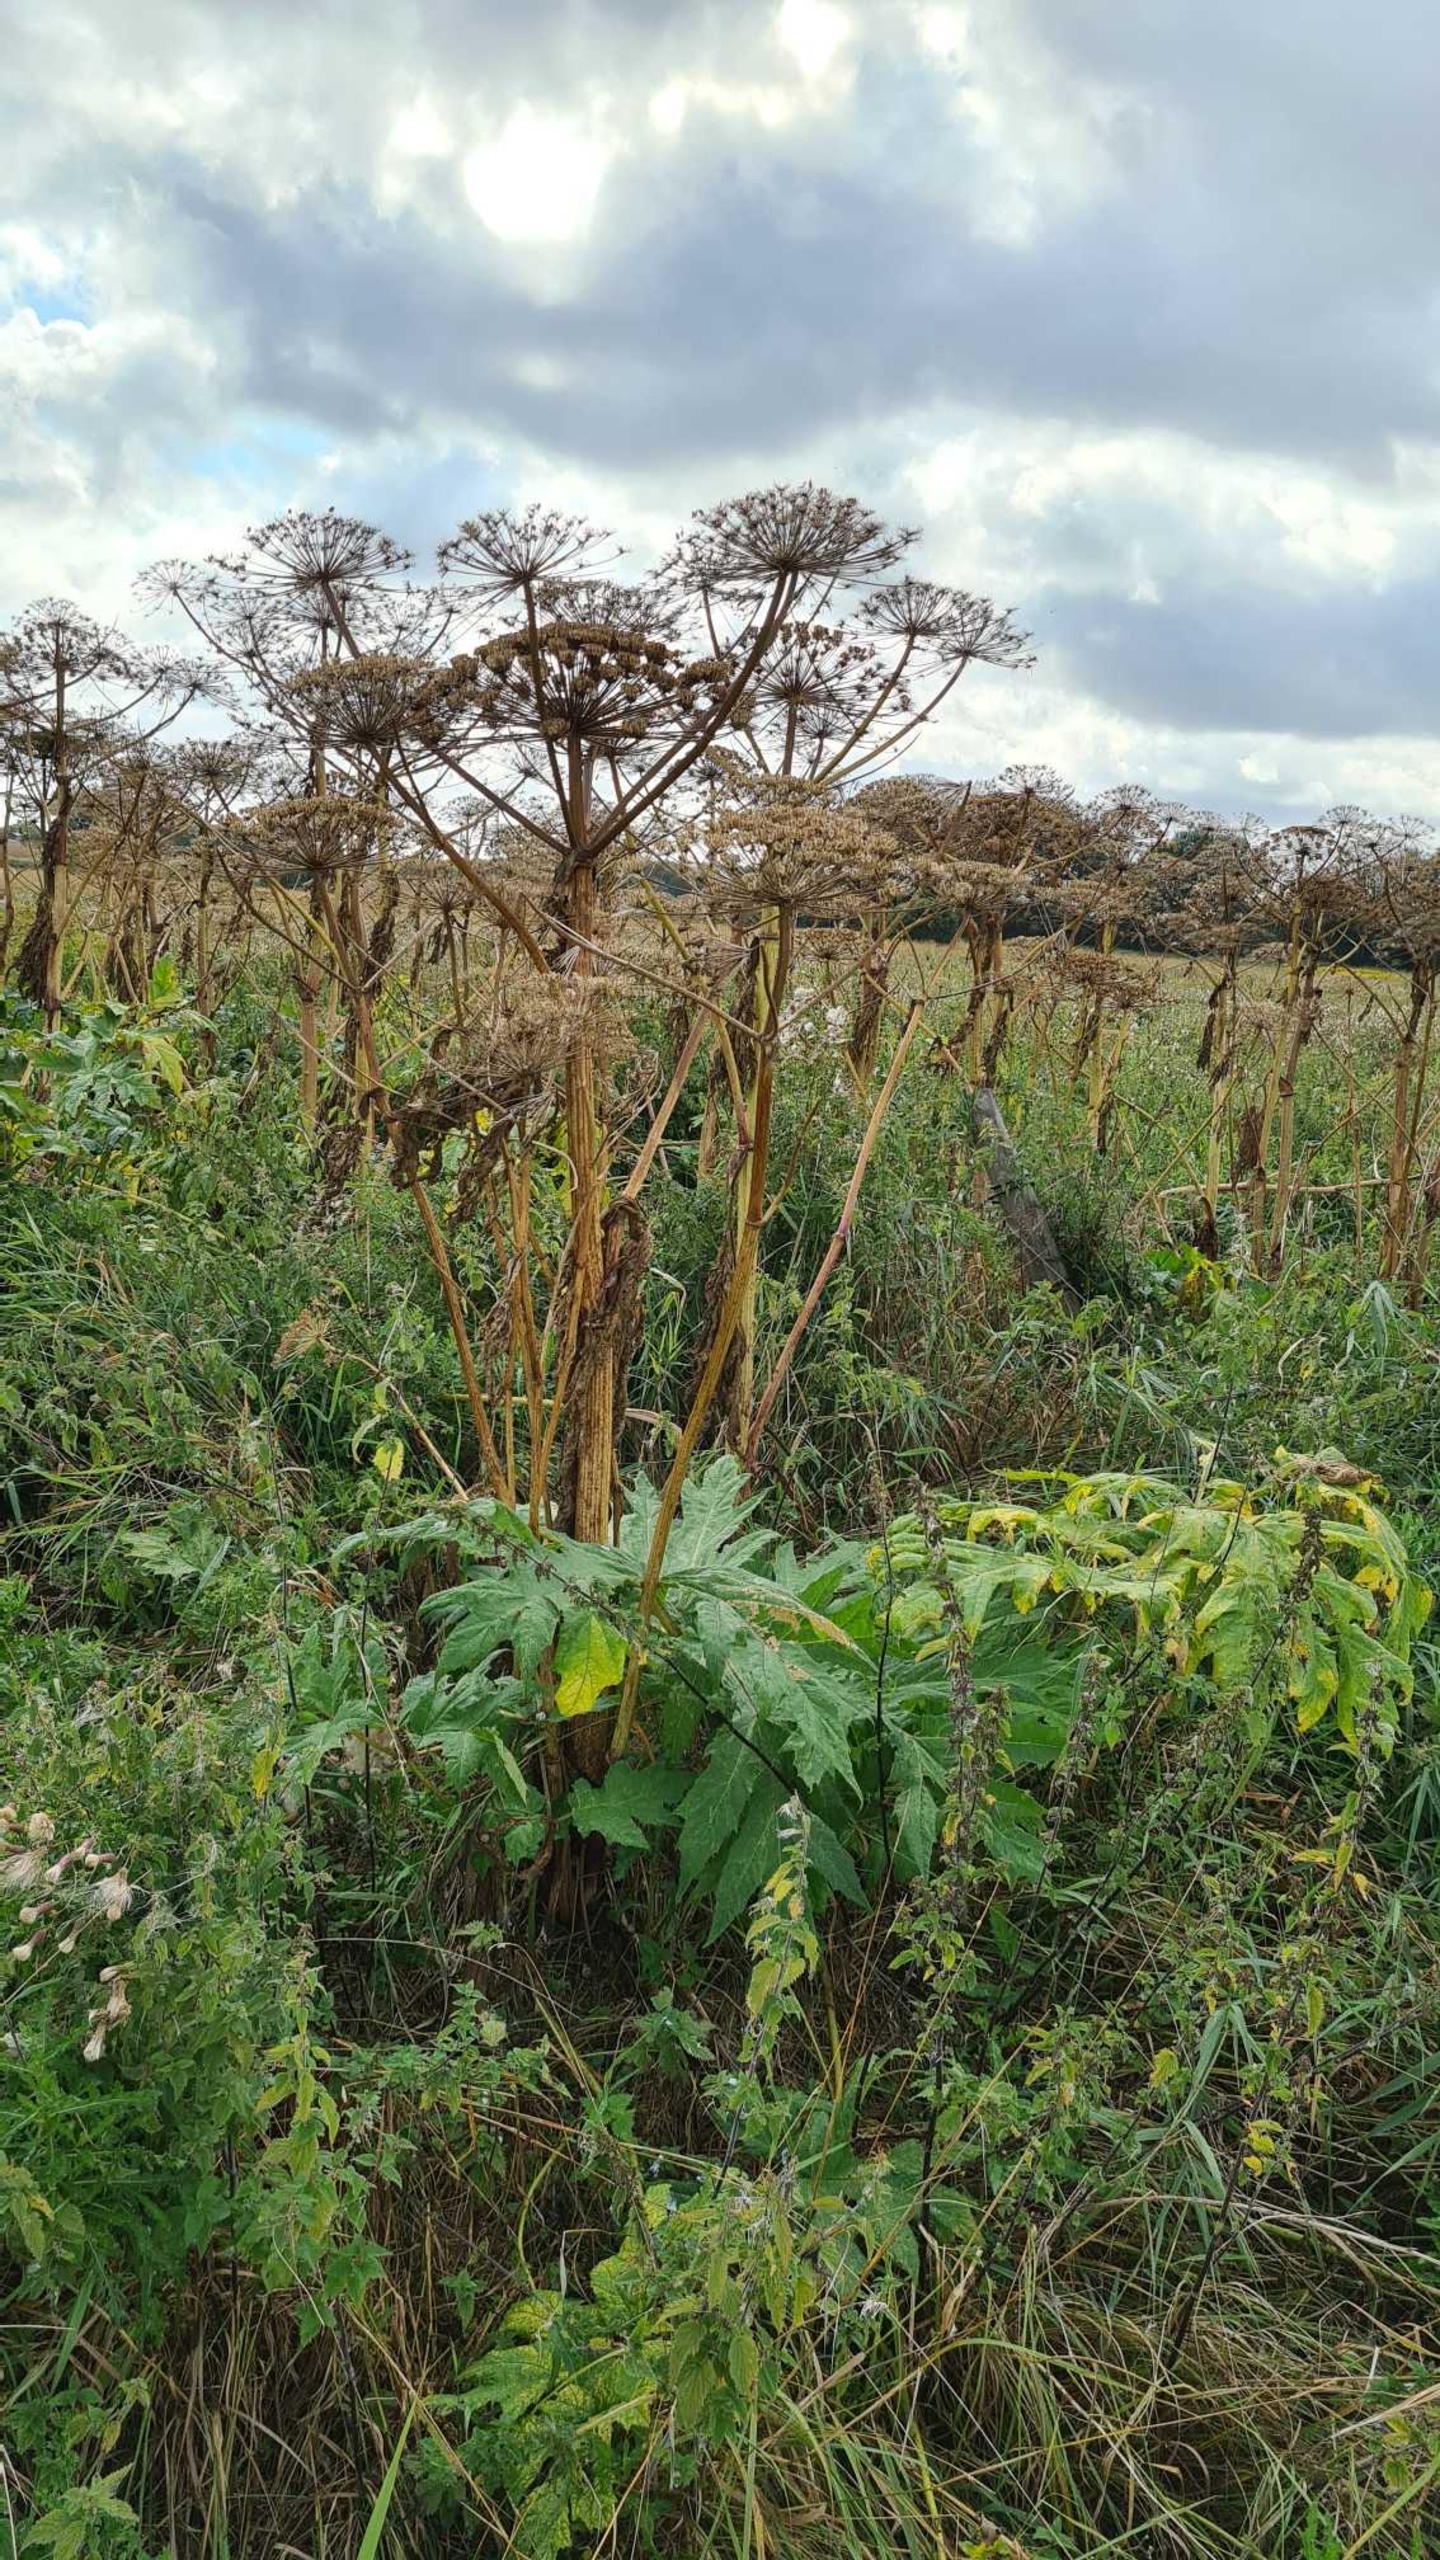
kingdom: Plantae
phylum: Tracheophyta
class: Magnoliopsida
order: Apiales
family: Apiaceae
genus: Heracleum
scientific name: Heracleum mantegazzianum
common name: Kæmpe-bjørneklo
